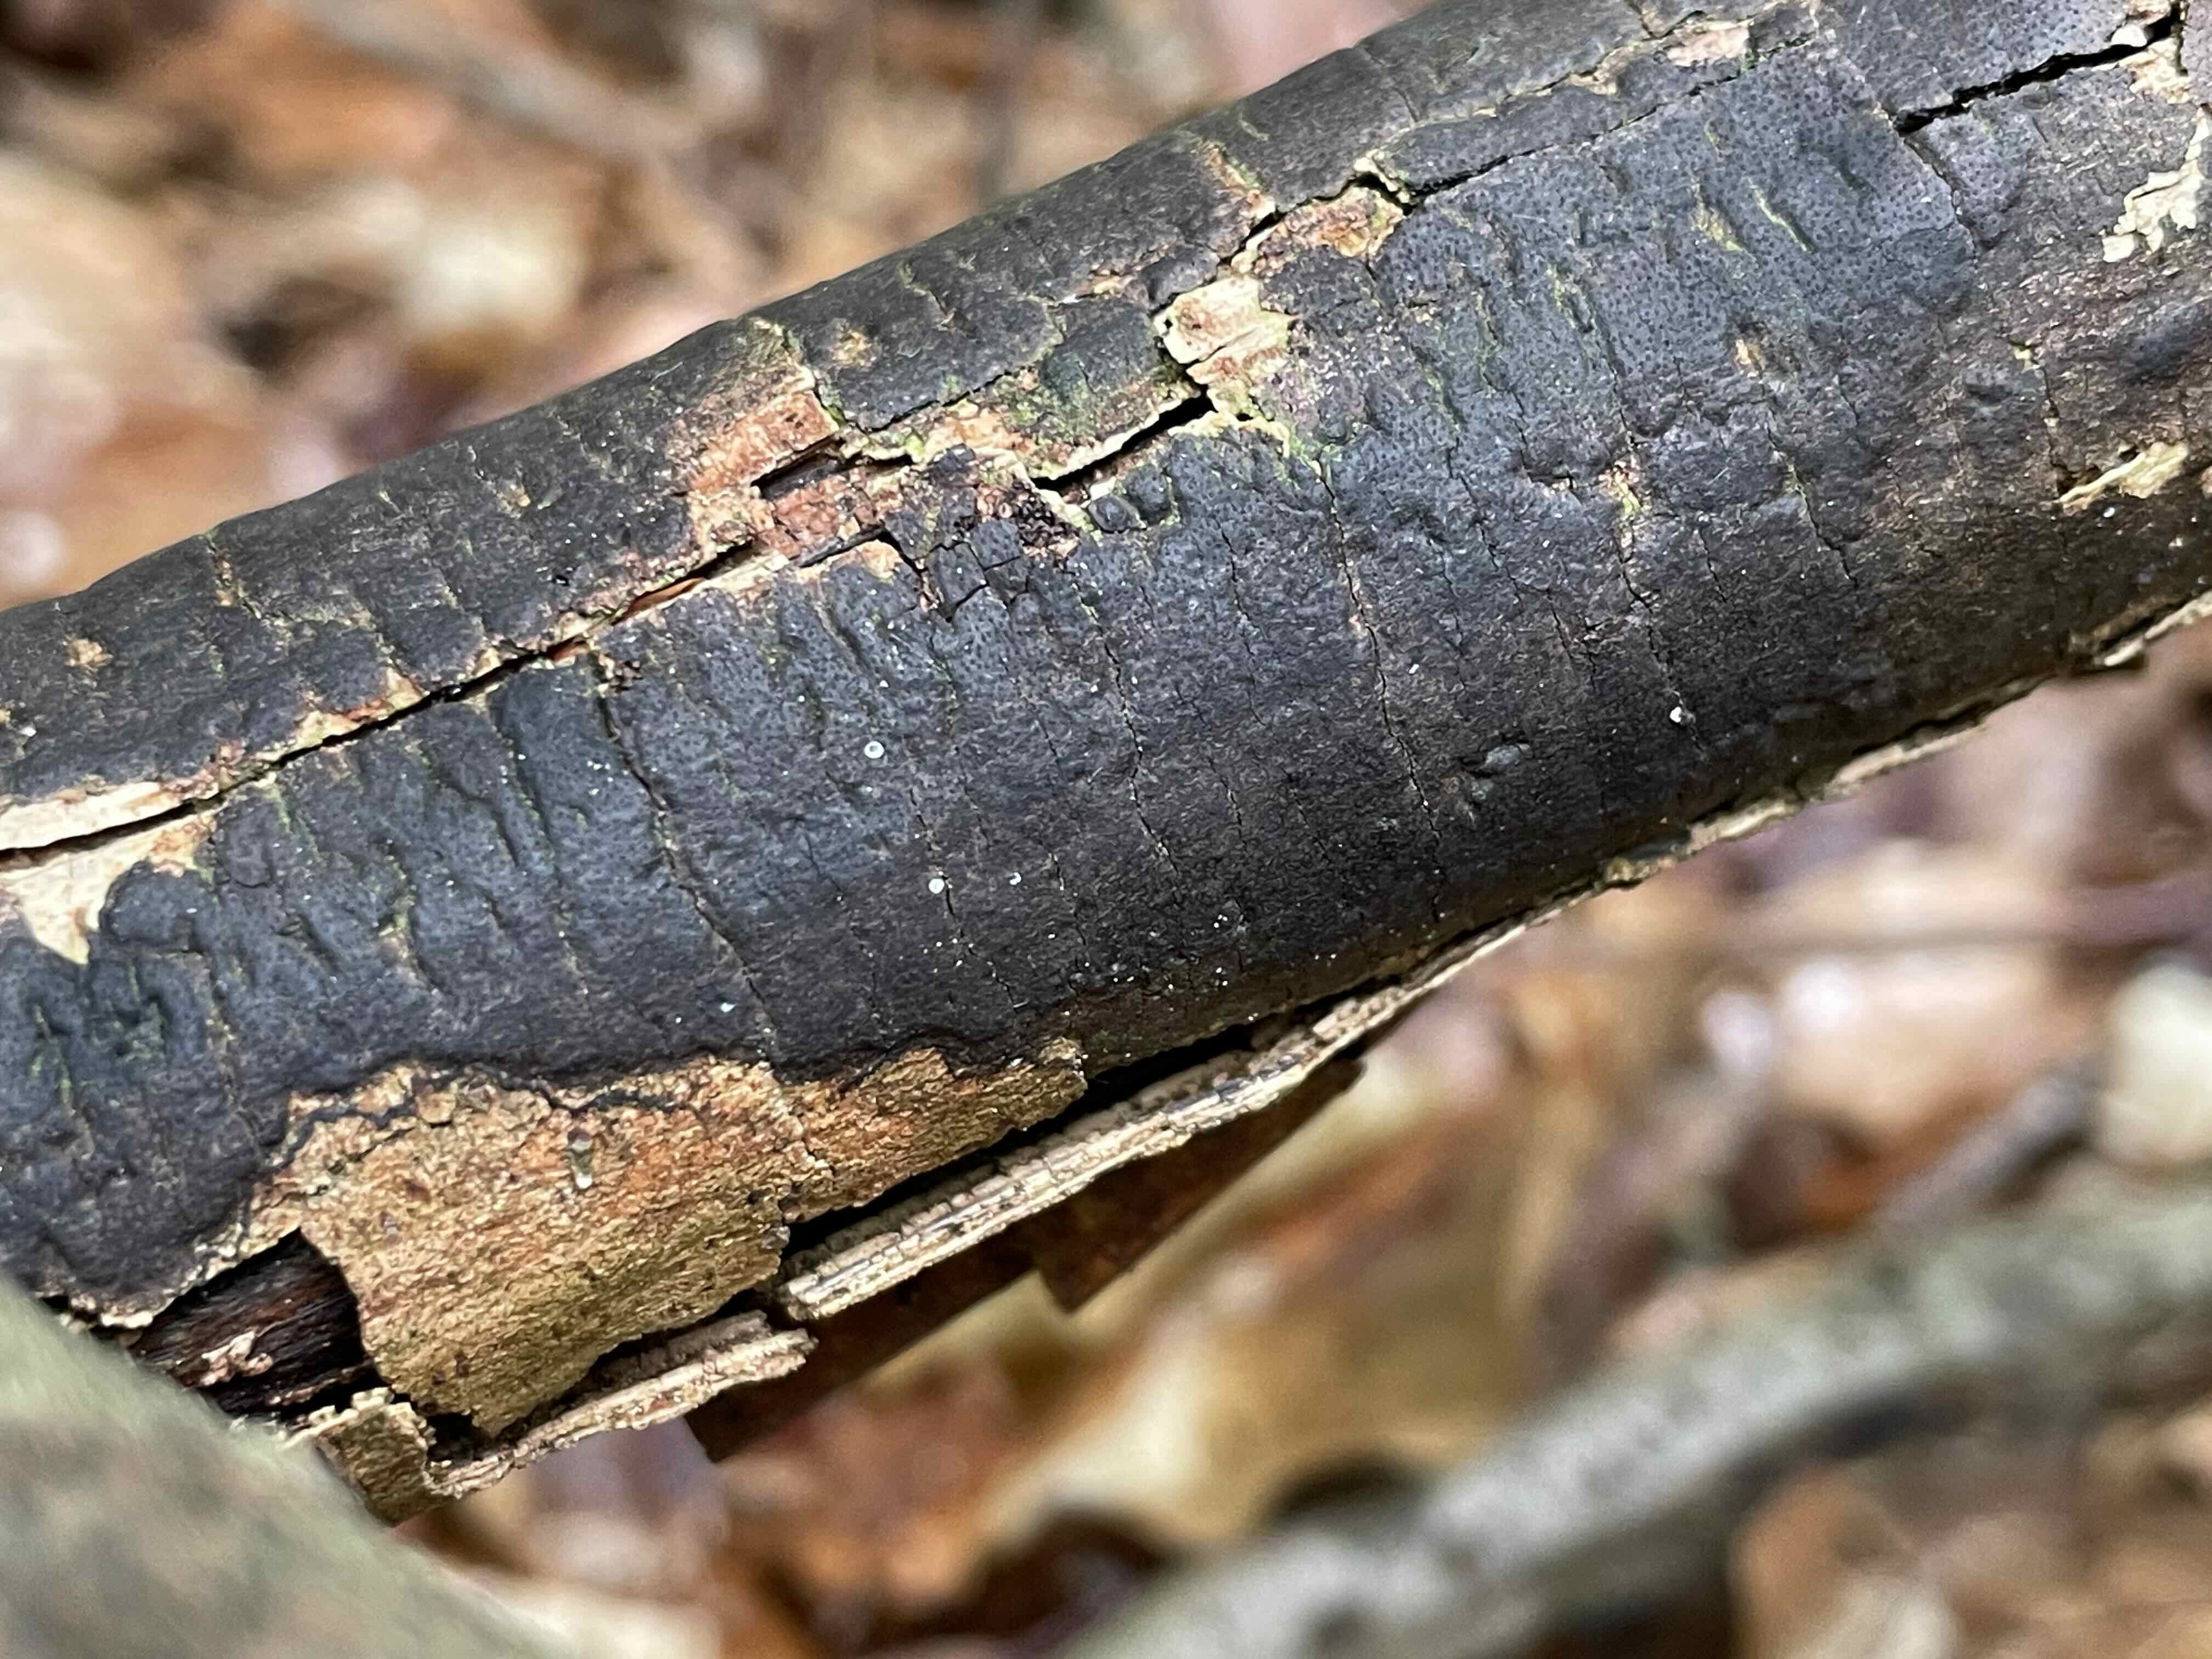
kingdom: Fungi
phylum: Ascomycota
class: Sordariomycetes
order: Xylariales
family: Diatrypaceae
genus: Diatrype
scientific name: Diatrype decorticata
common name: barksprænger-kulskorpe
